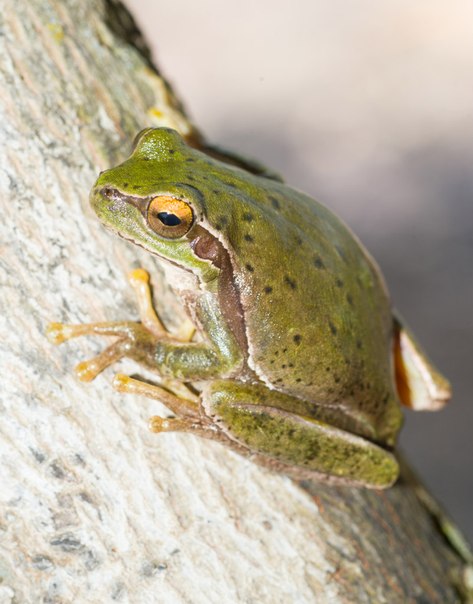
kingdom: Animalia
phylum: Chordata
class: Amphibia
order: Anura
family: Hylidae
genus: Hyla
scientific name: Hyla savignyi
